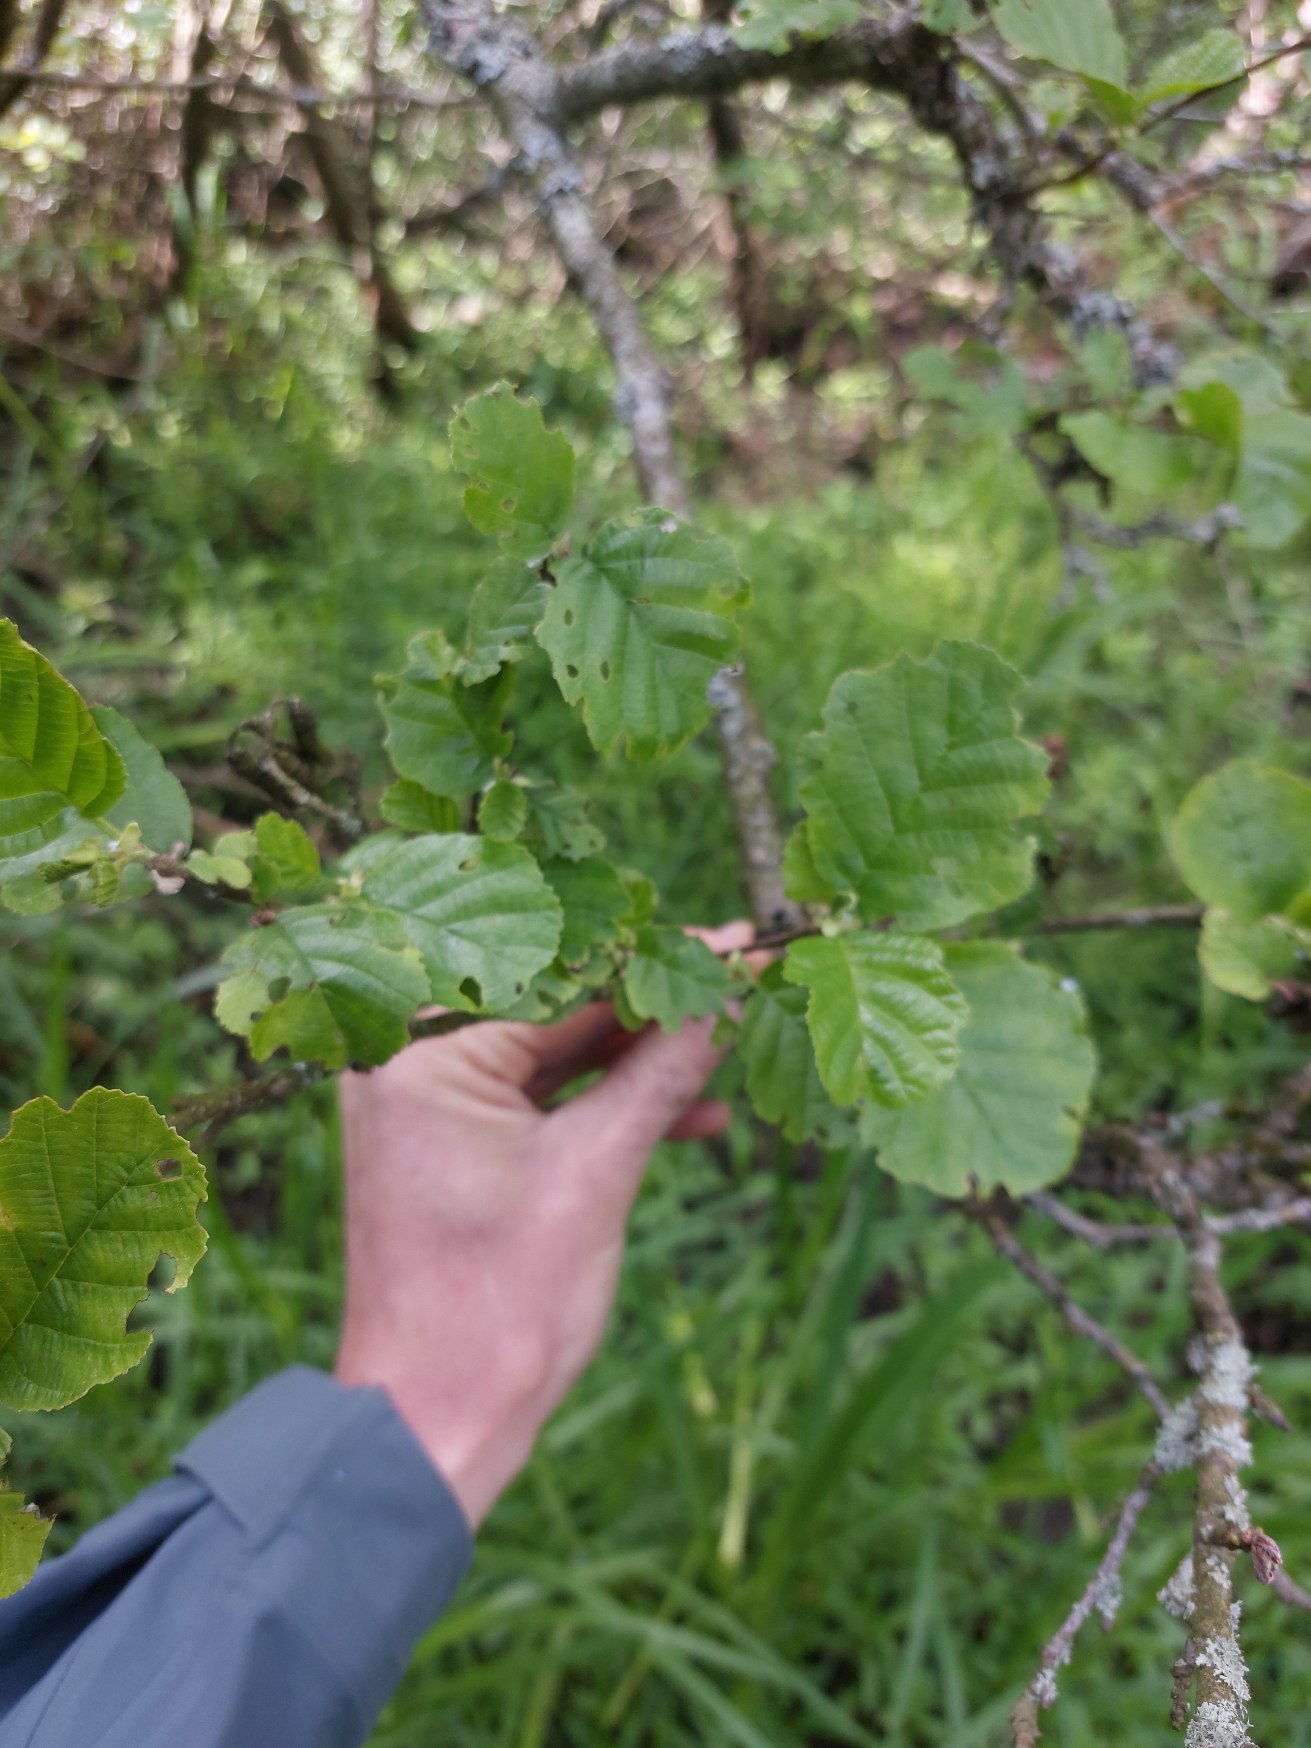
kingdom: Plantae
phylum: Tracheophyta
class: Magnoliopsida
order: Fagales
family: Betulaceae
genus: Alnus
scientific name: Alnus glutinosa
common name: Rød-el
